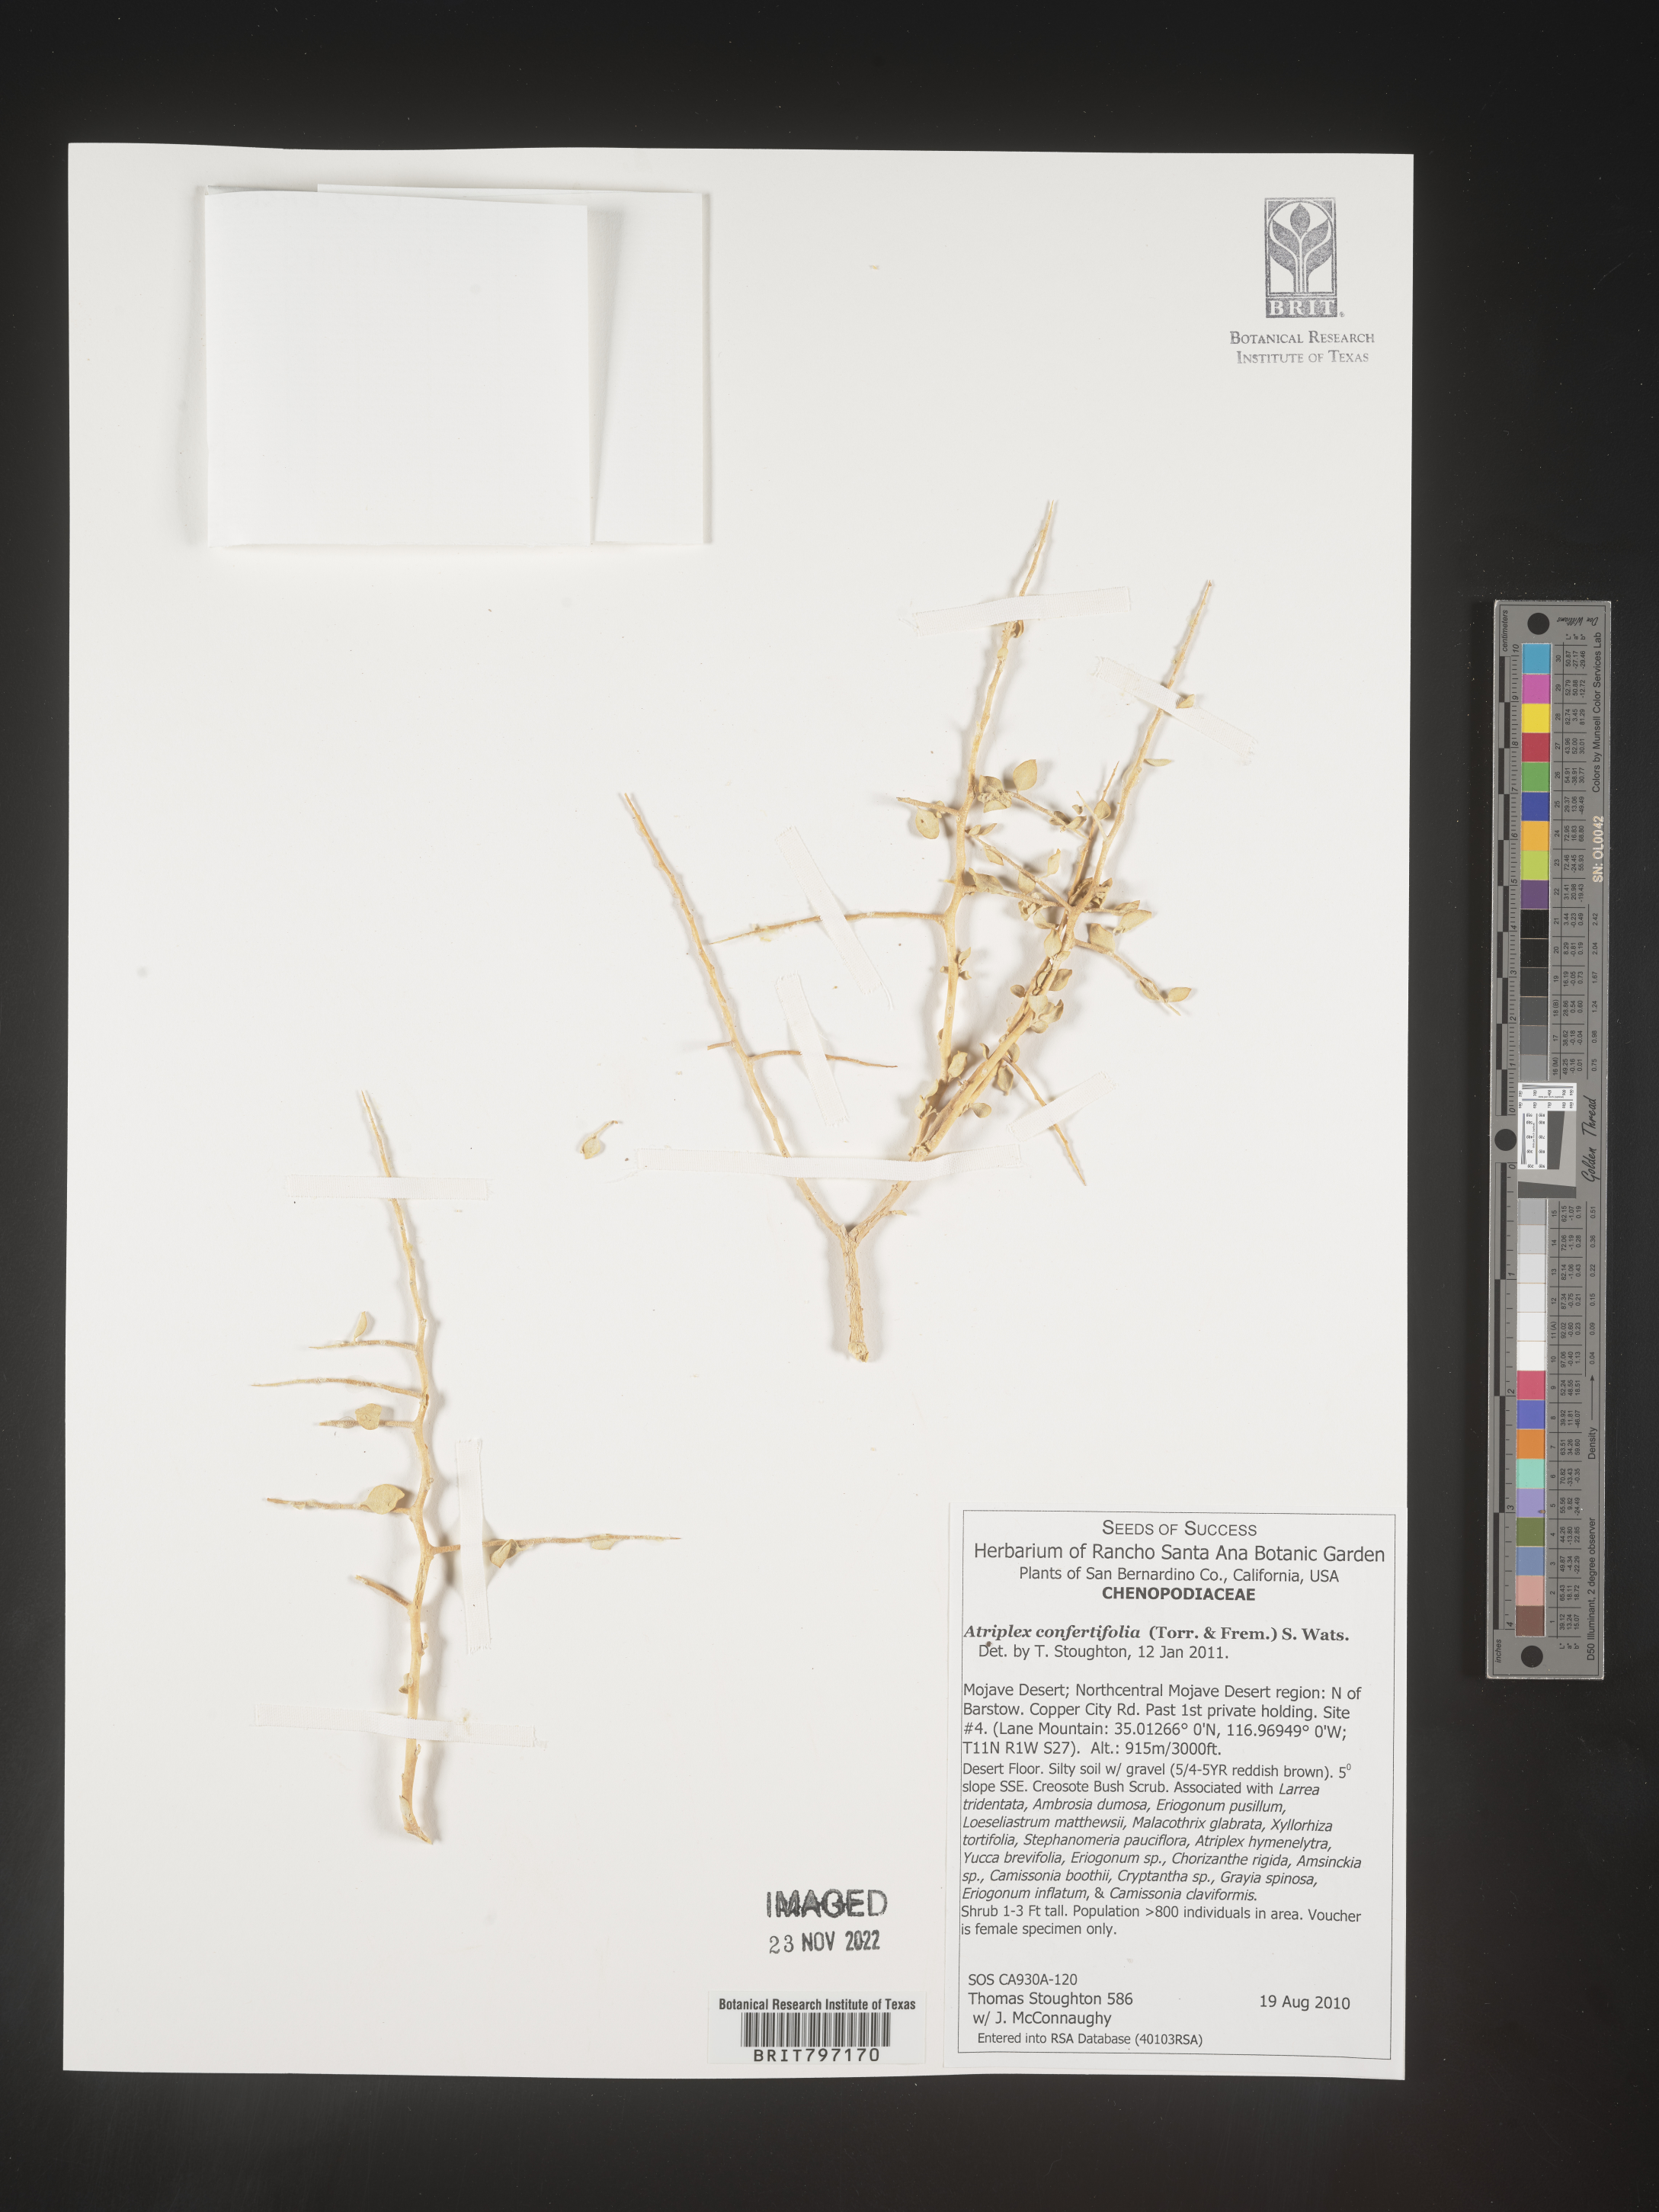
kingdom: Plantae
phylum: Tracheophyta
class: Magnoliopsida
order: Caryophyllales
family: Amaranthaceae
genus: Atriplex
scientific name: Atriplex confertifolia
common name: Shadscale
